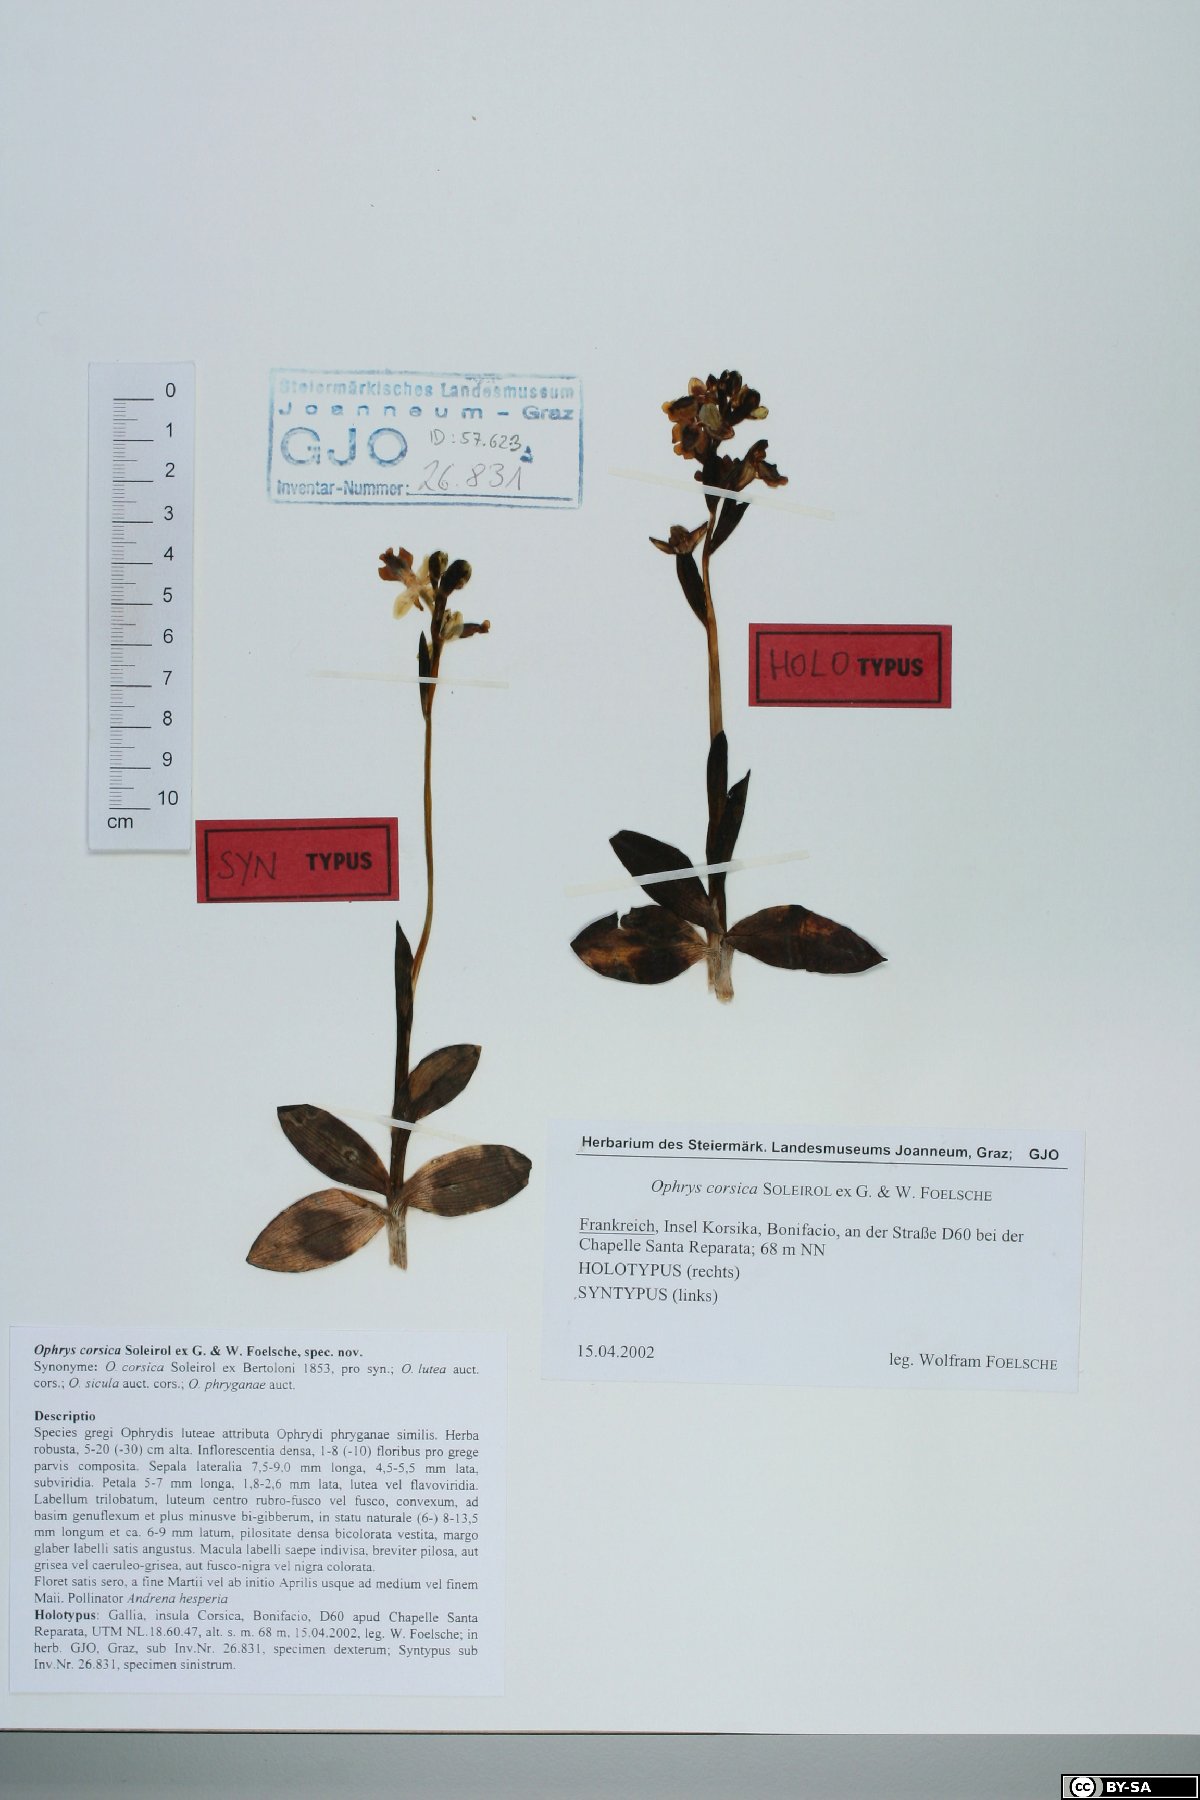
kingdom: Plantae
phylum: Tracheophyta
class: Liliopsida
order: Asparagales
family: Orchidaceae
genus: Ophrys
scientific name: Ophrys lutea
